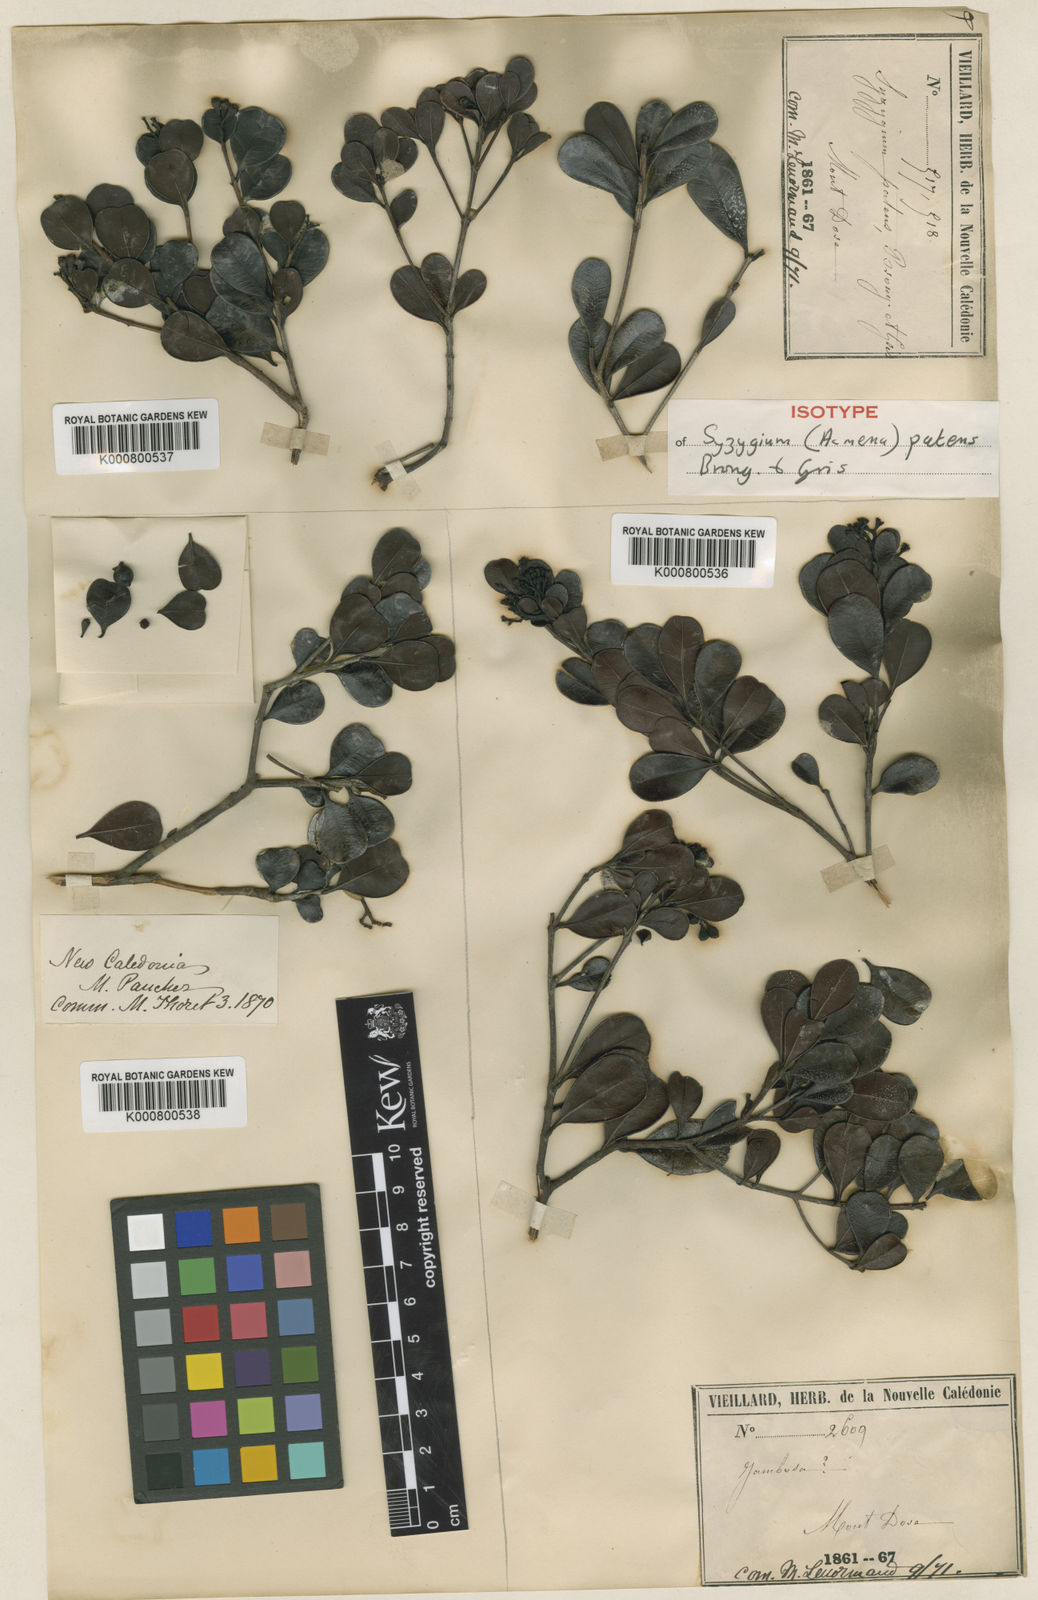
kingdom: Plantae
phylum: Tracheophyta
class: Magnoliopsida
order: Myrtales
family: Myrtaceae
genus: Syzygium
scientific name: Syzygium ngoyense
